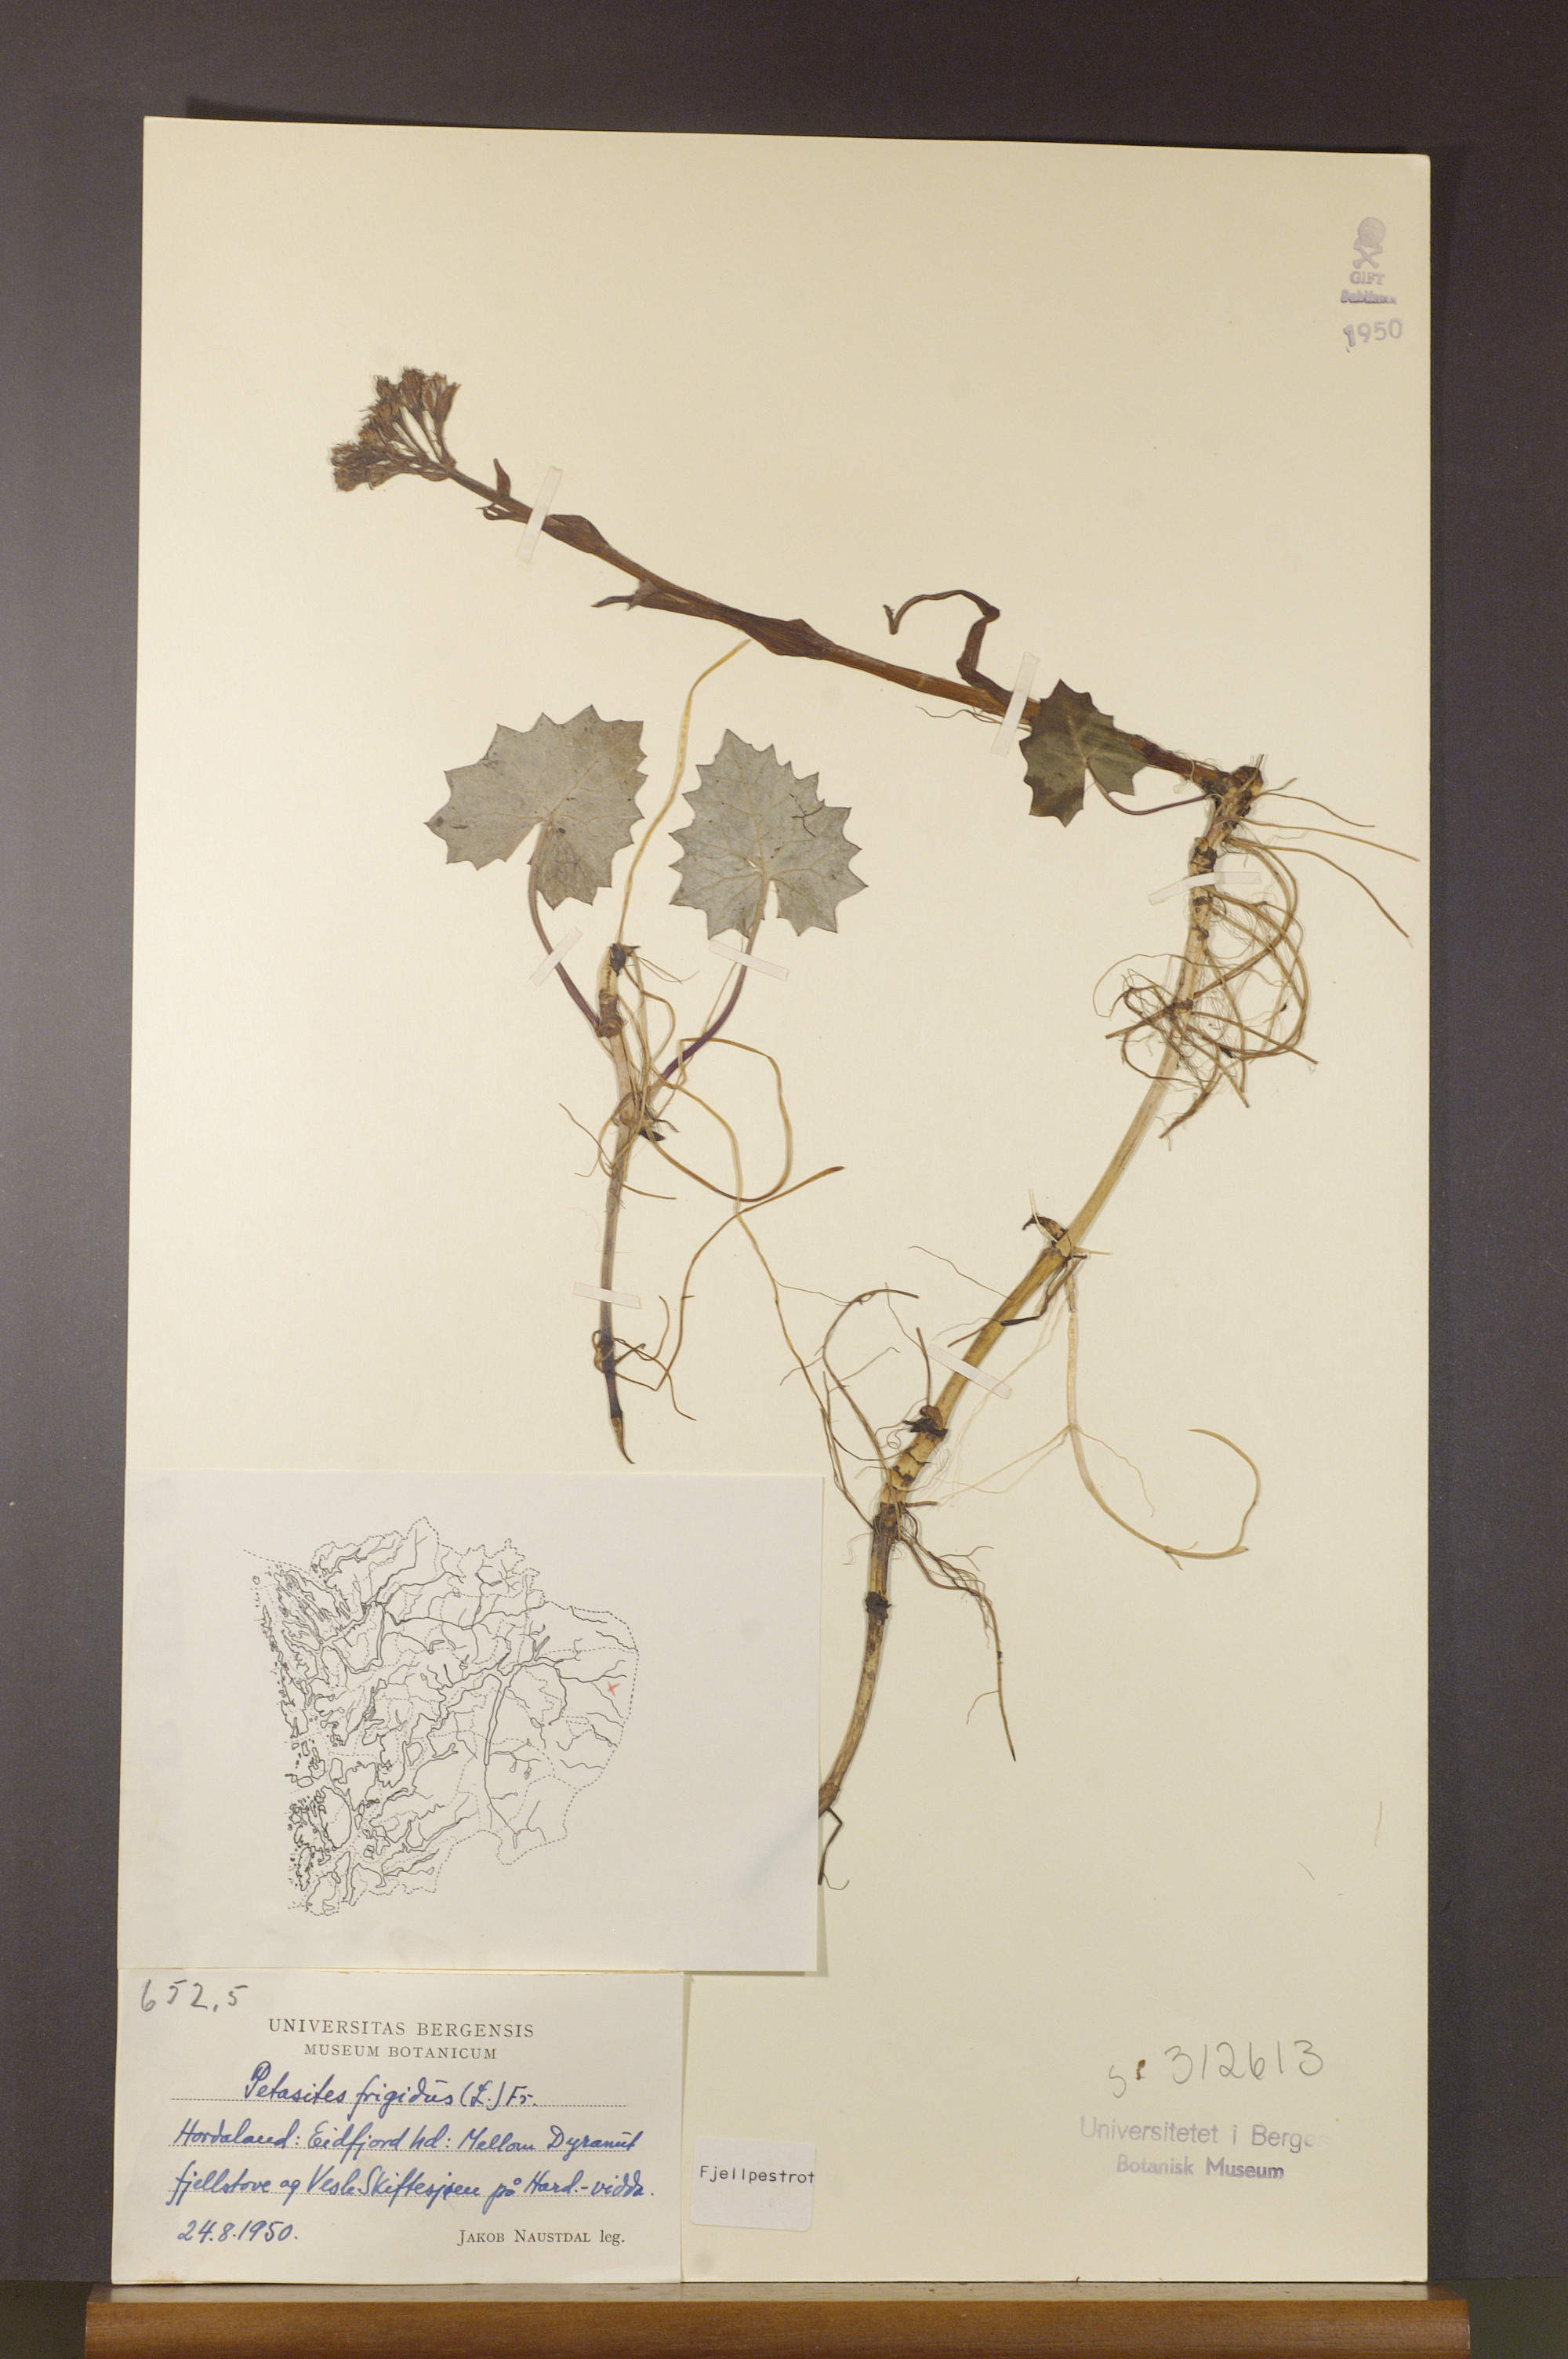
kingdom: Plantae
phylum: Tracheophyta
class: Magnoliopsida
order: Asterales
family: Asteraceae
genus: Petasites
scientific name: Petasites frigidus
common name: Arctic butterbur
